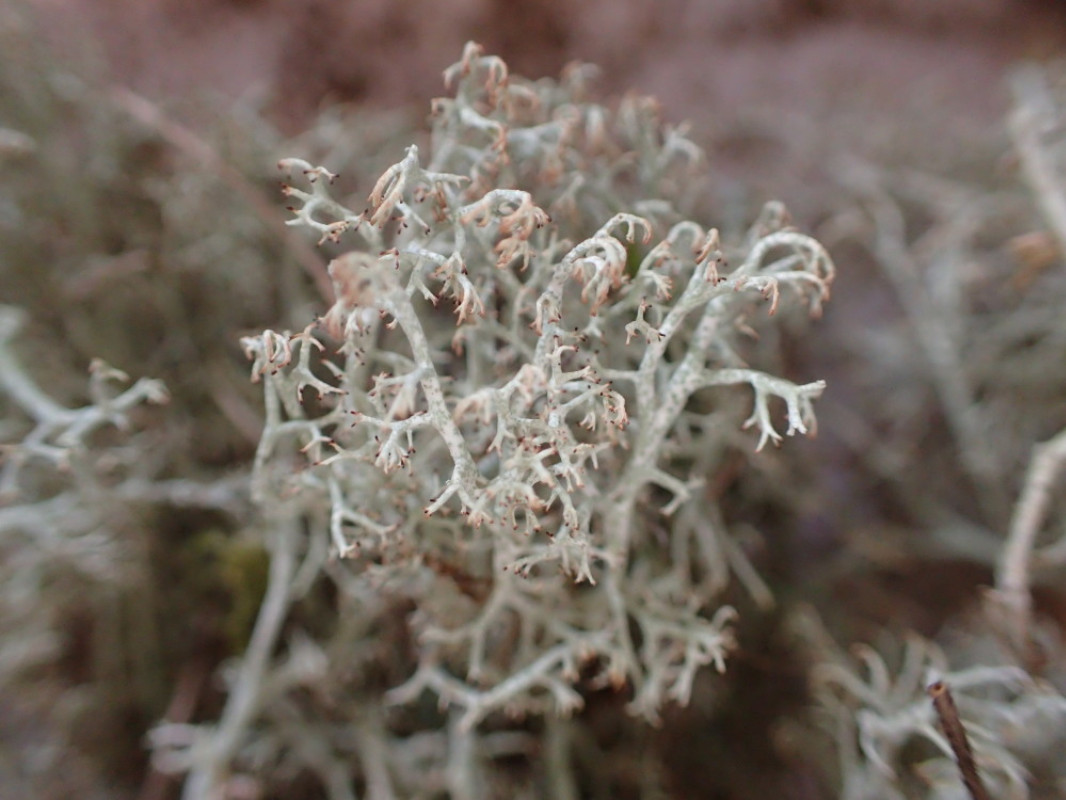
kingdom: Fungi
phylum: Ascomycota
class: Lecanoromycetes
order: Lecanorales
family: Cladoniaceae
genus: Cladonia
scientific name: Cladonia ciliata
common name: spinkel rensdyrlav
